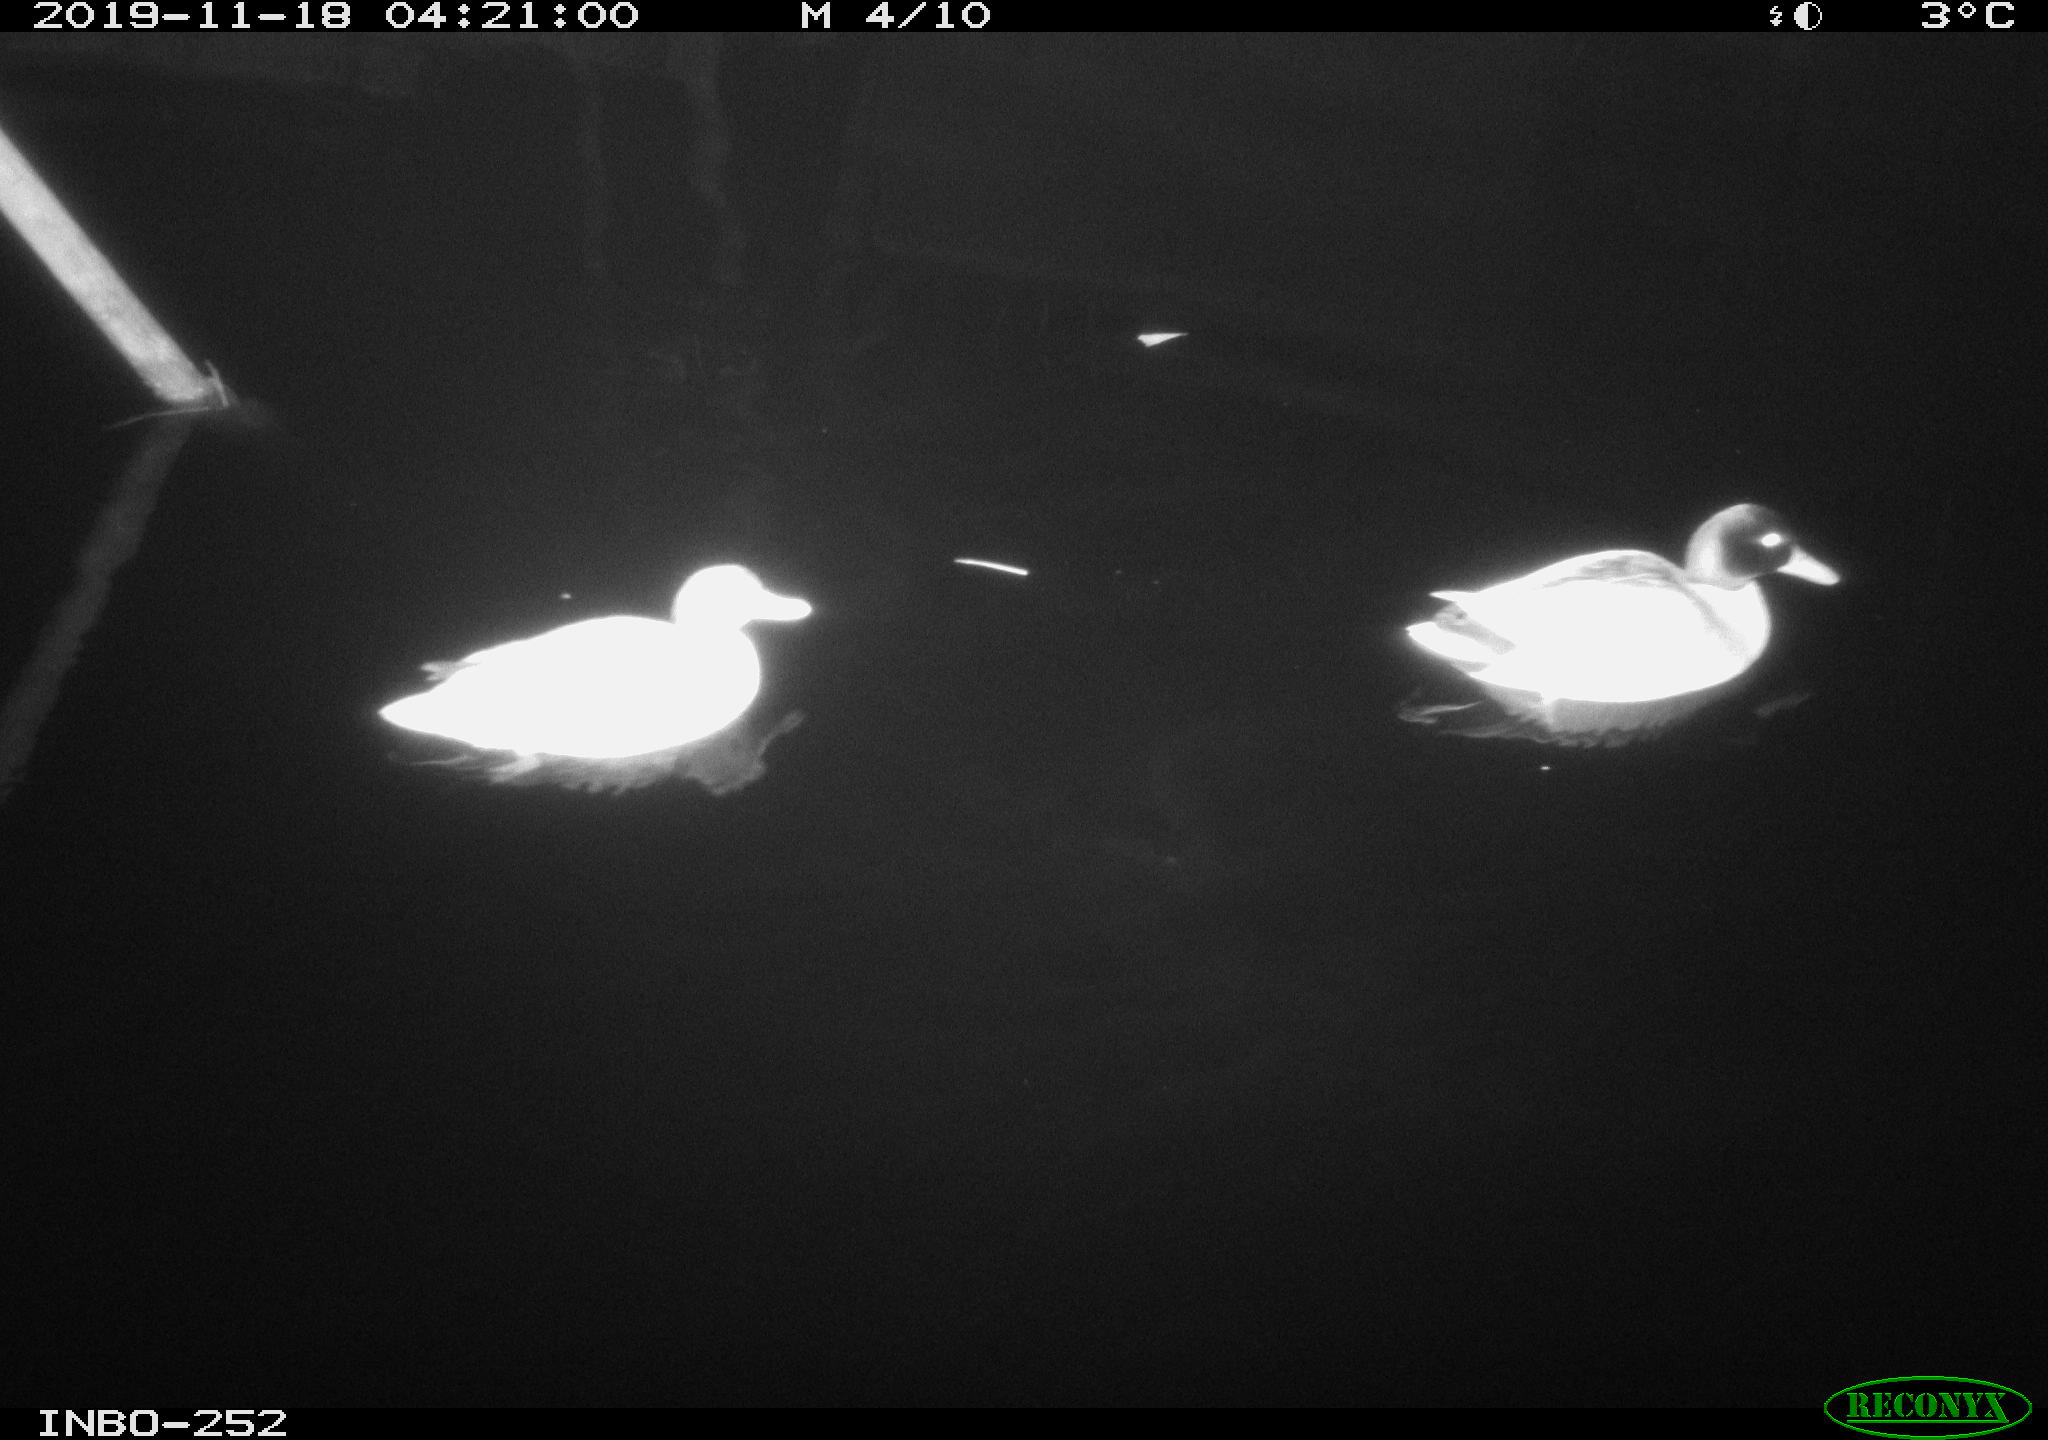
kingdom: Animalia
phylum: Chordata
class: Aves
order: Anseriformes
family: Anatidae
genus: Anas
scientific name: Anas platyrhynchos
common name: Mallard
